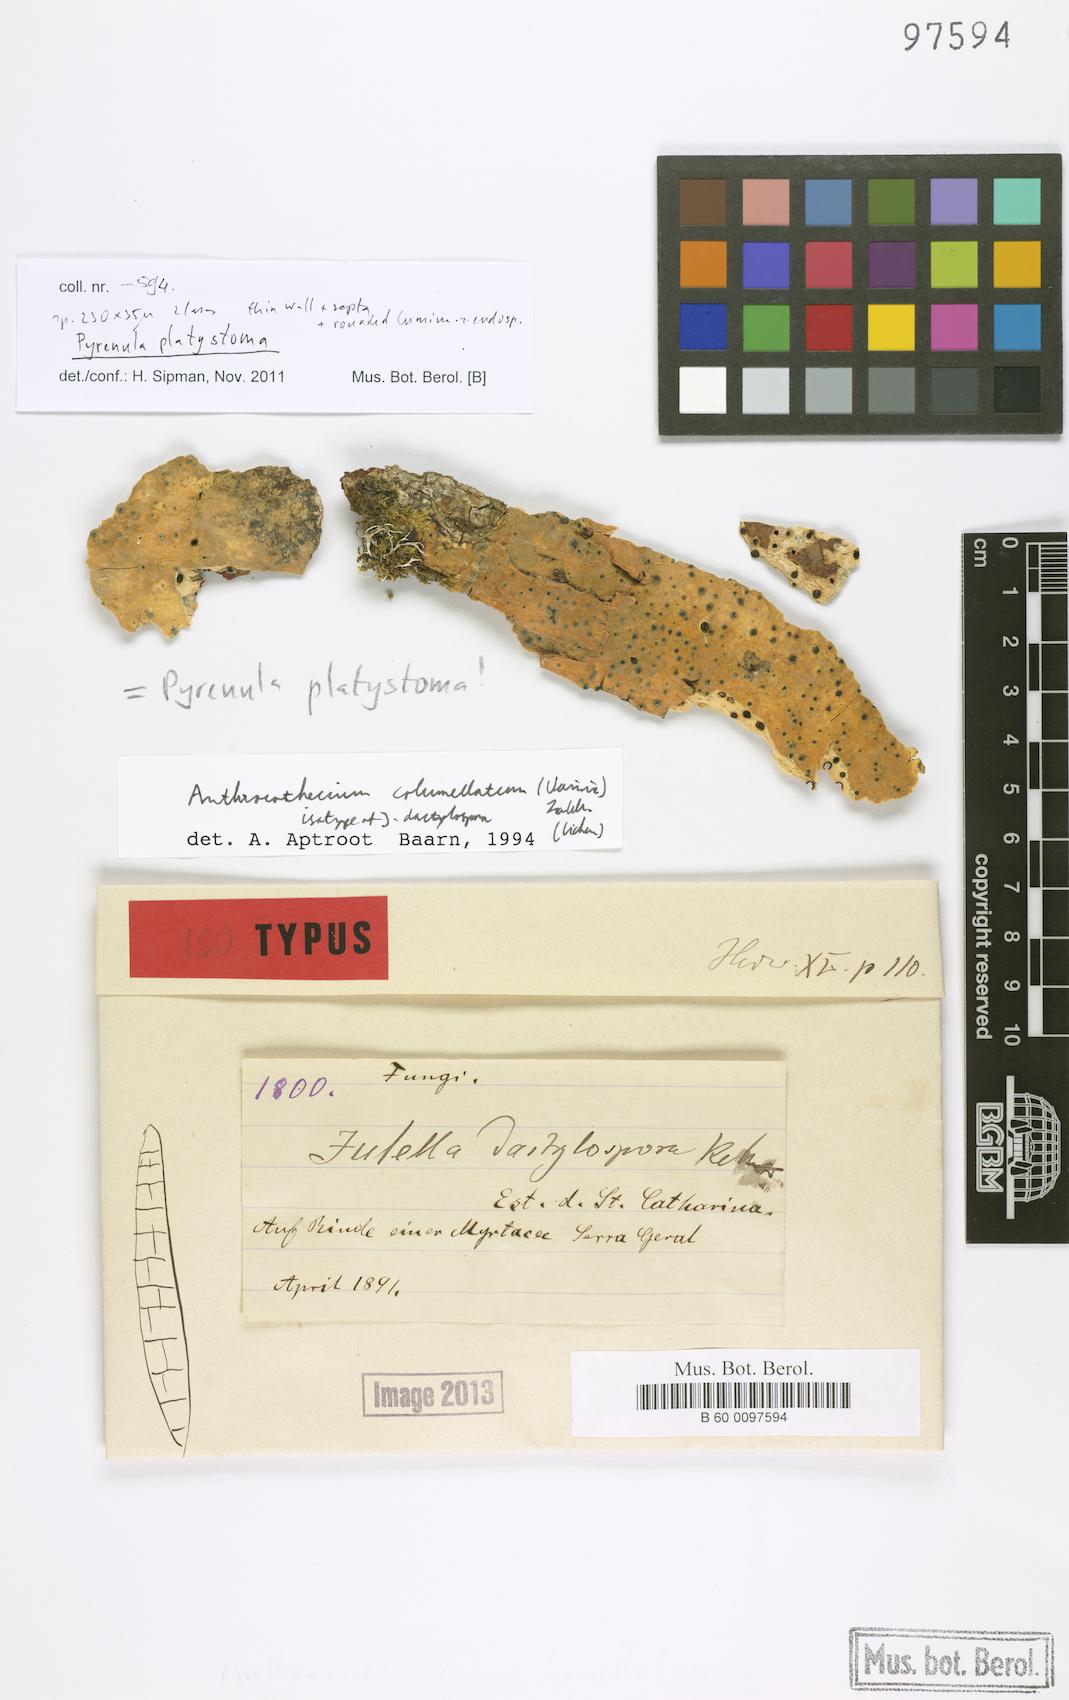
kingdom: Fungi
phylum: Ascomycota
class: Lecanoromycetes
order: Ostropales
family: Thelenellaceae
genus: Julella
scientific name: Julella
